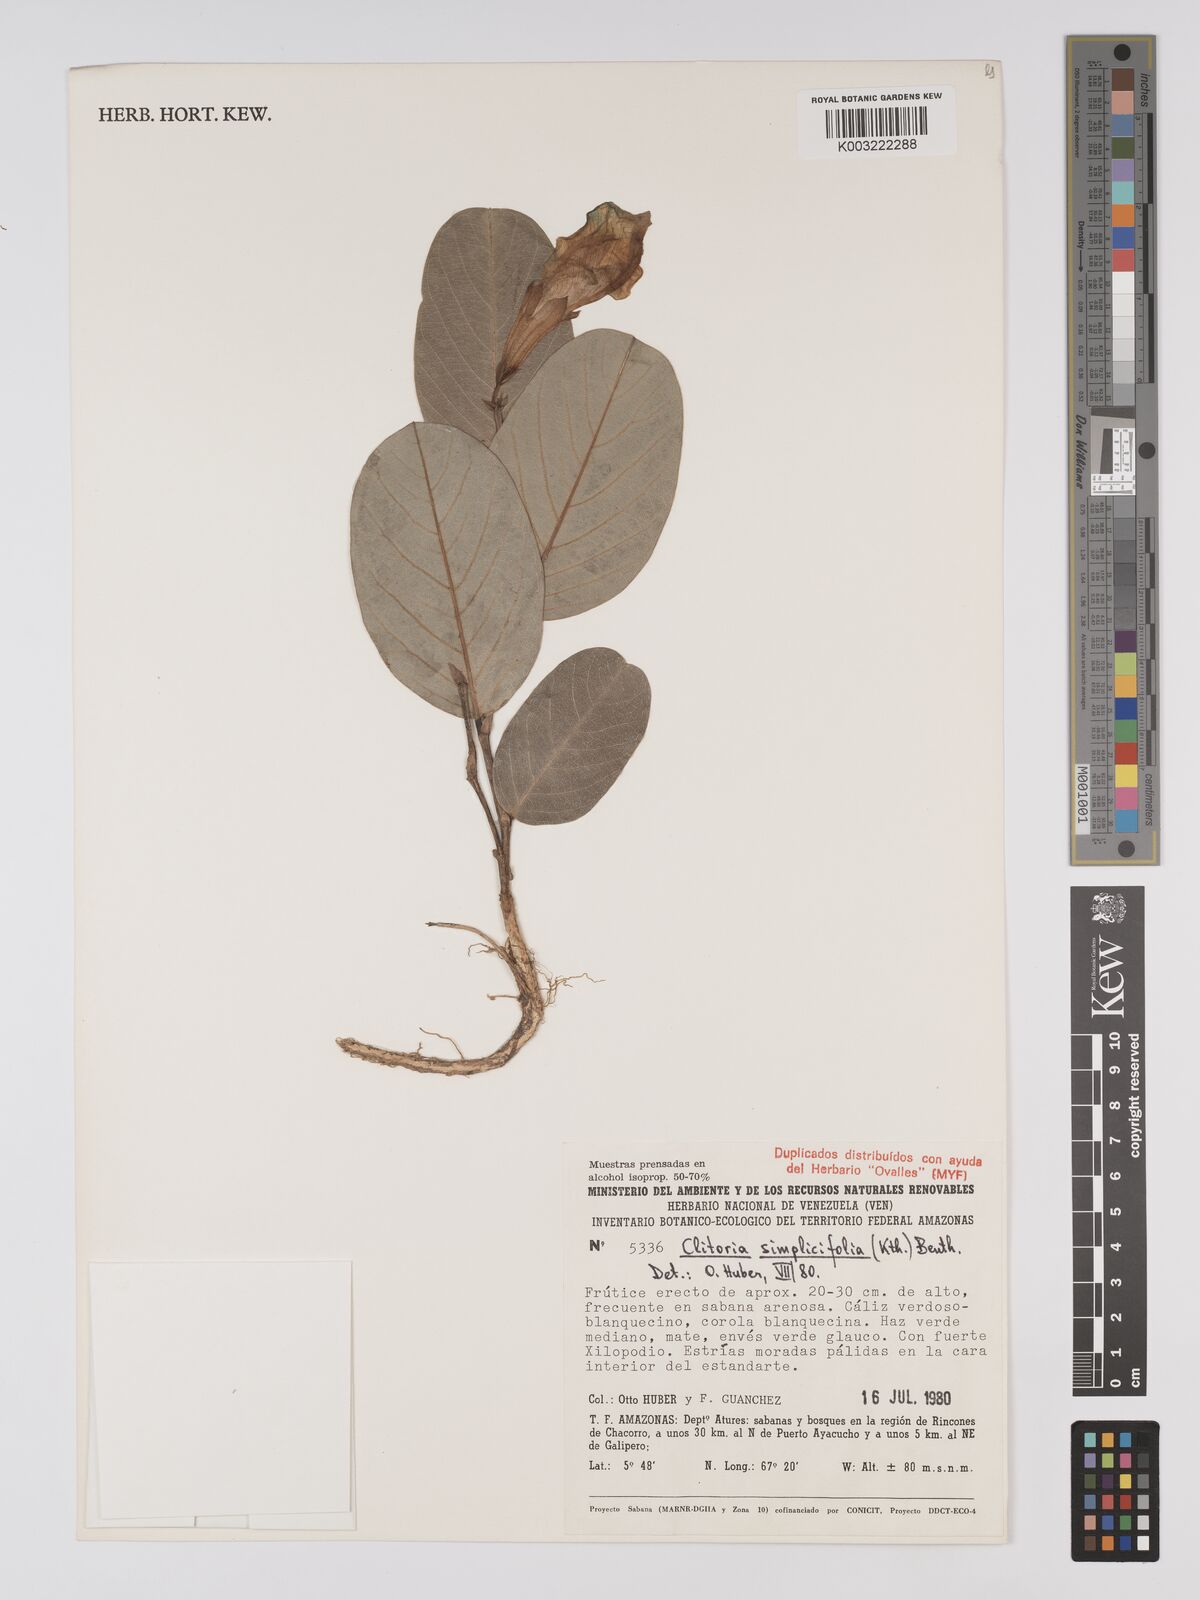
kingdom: Plantae
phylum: Tracheophyta
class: Magnoliopsida
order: Fabales
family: Fabaceae
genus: Clitoria
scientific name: Clitoria simplicifolia
